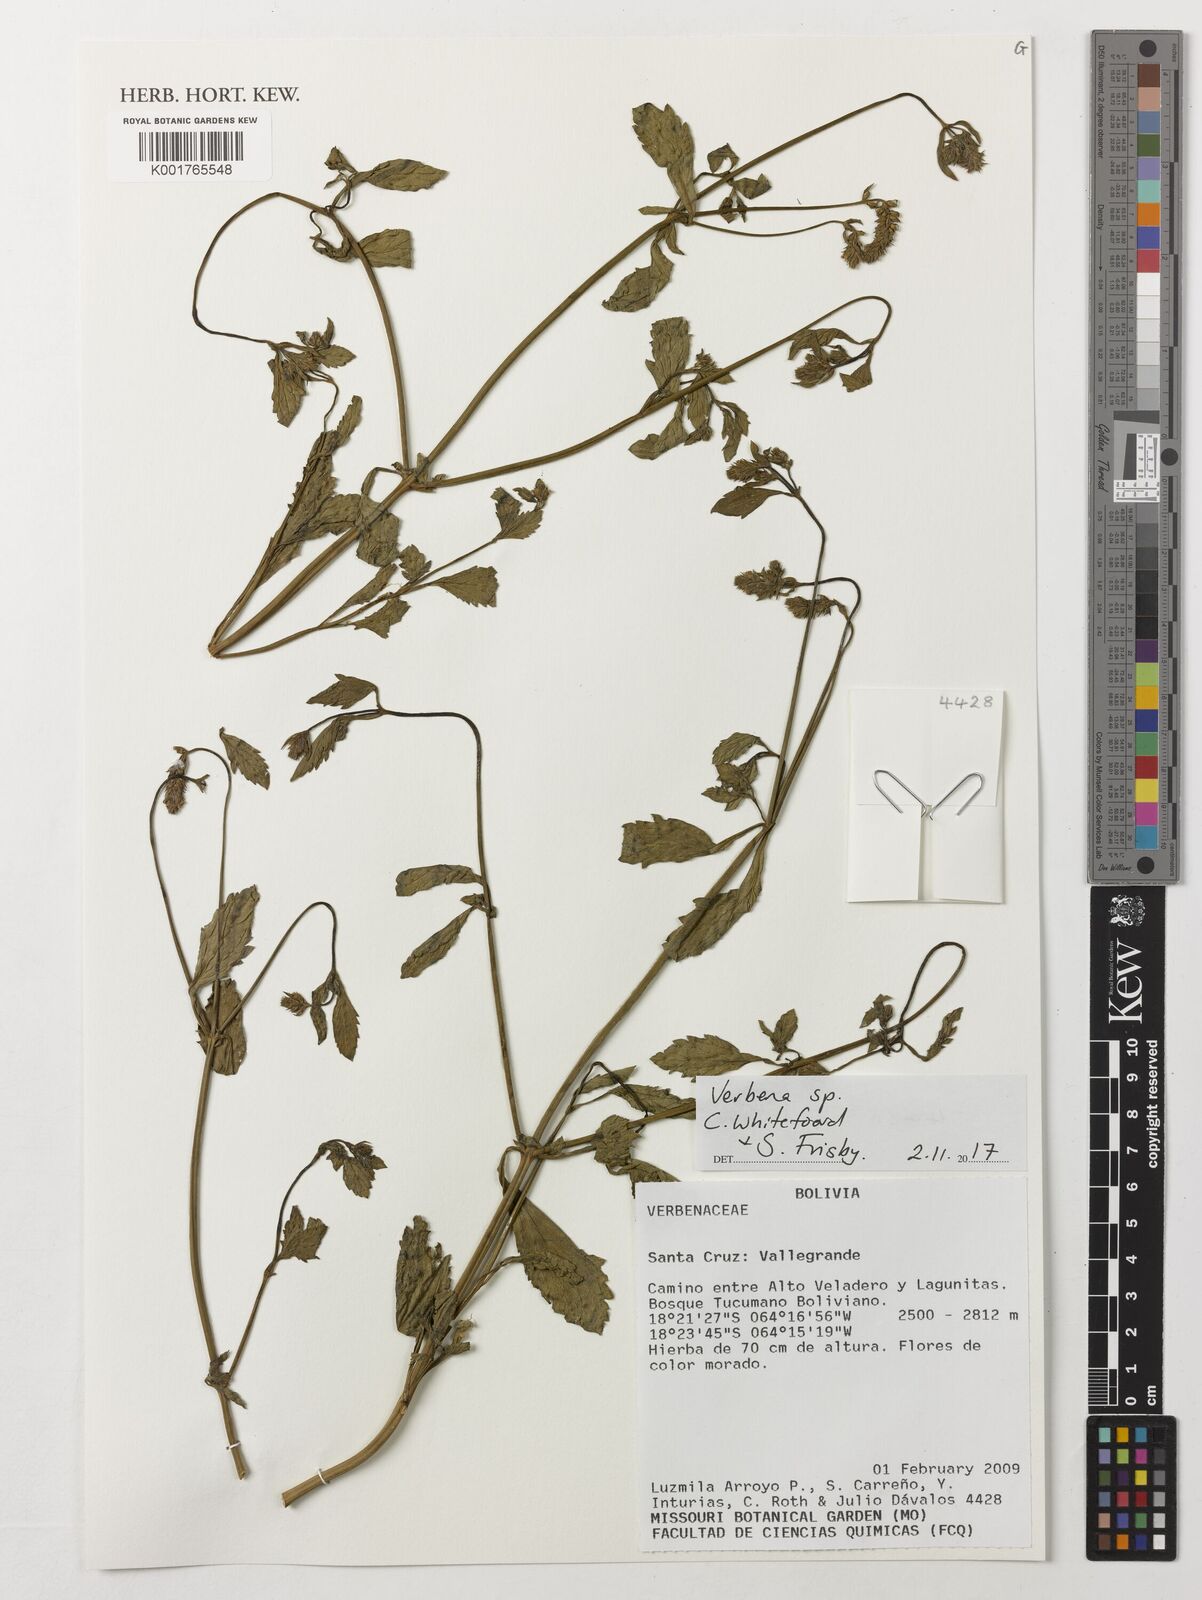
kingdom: Plantae
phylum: Tracheophyta
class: Magnoliopsida
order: Lamiales
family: Verbenaceae
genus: Verbena
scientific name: Verbena
